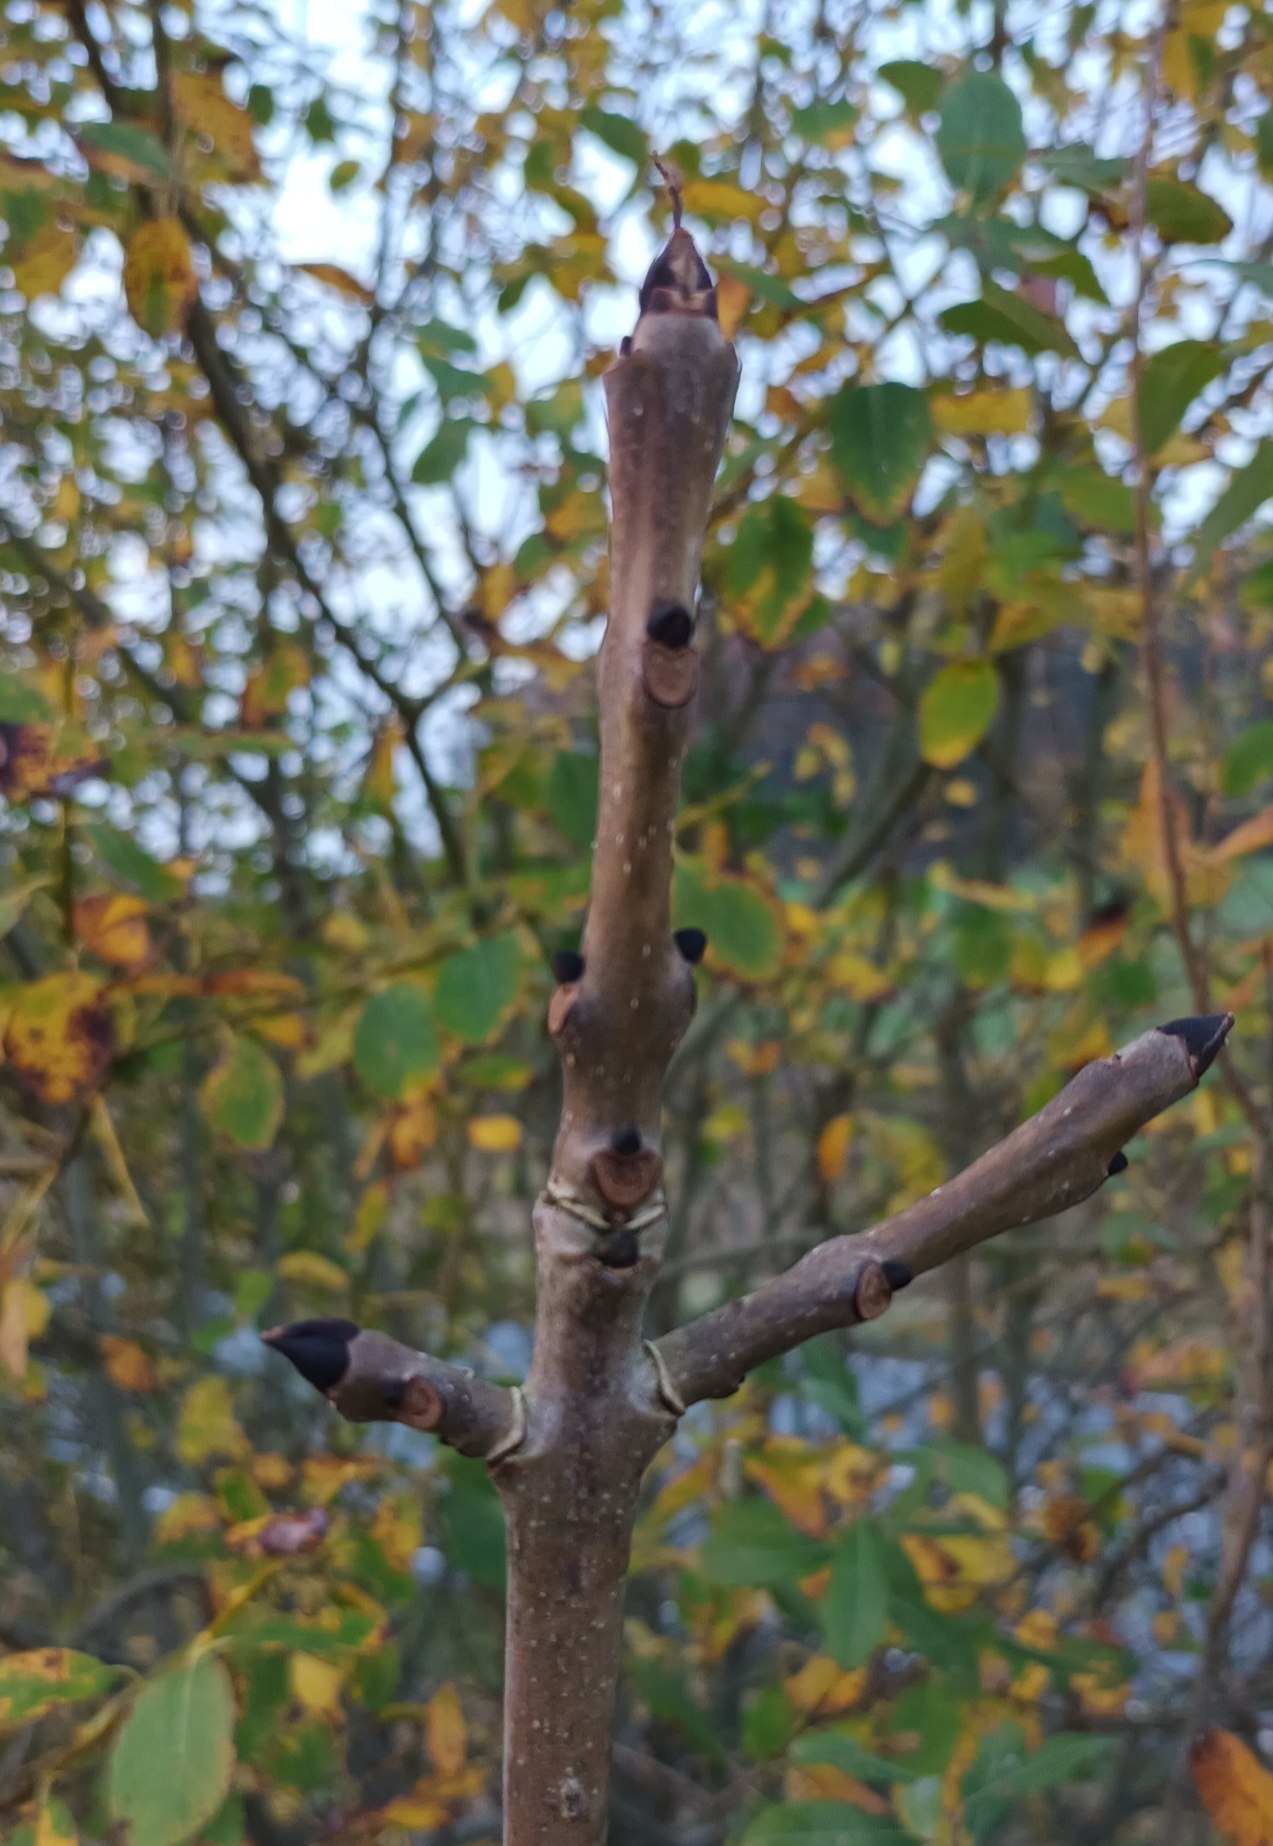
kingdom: Plantae
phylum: Tracheophyta
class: Magnoliopsida
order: Lamiales
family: Oleaceae
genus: Fraxinus
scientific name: Fraxinus excelsior
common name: Ask
